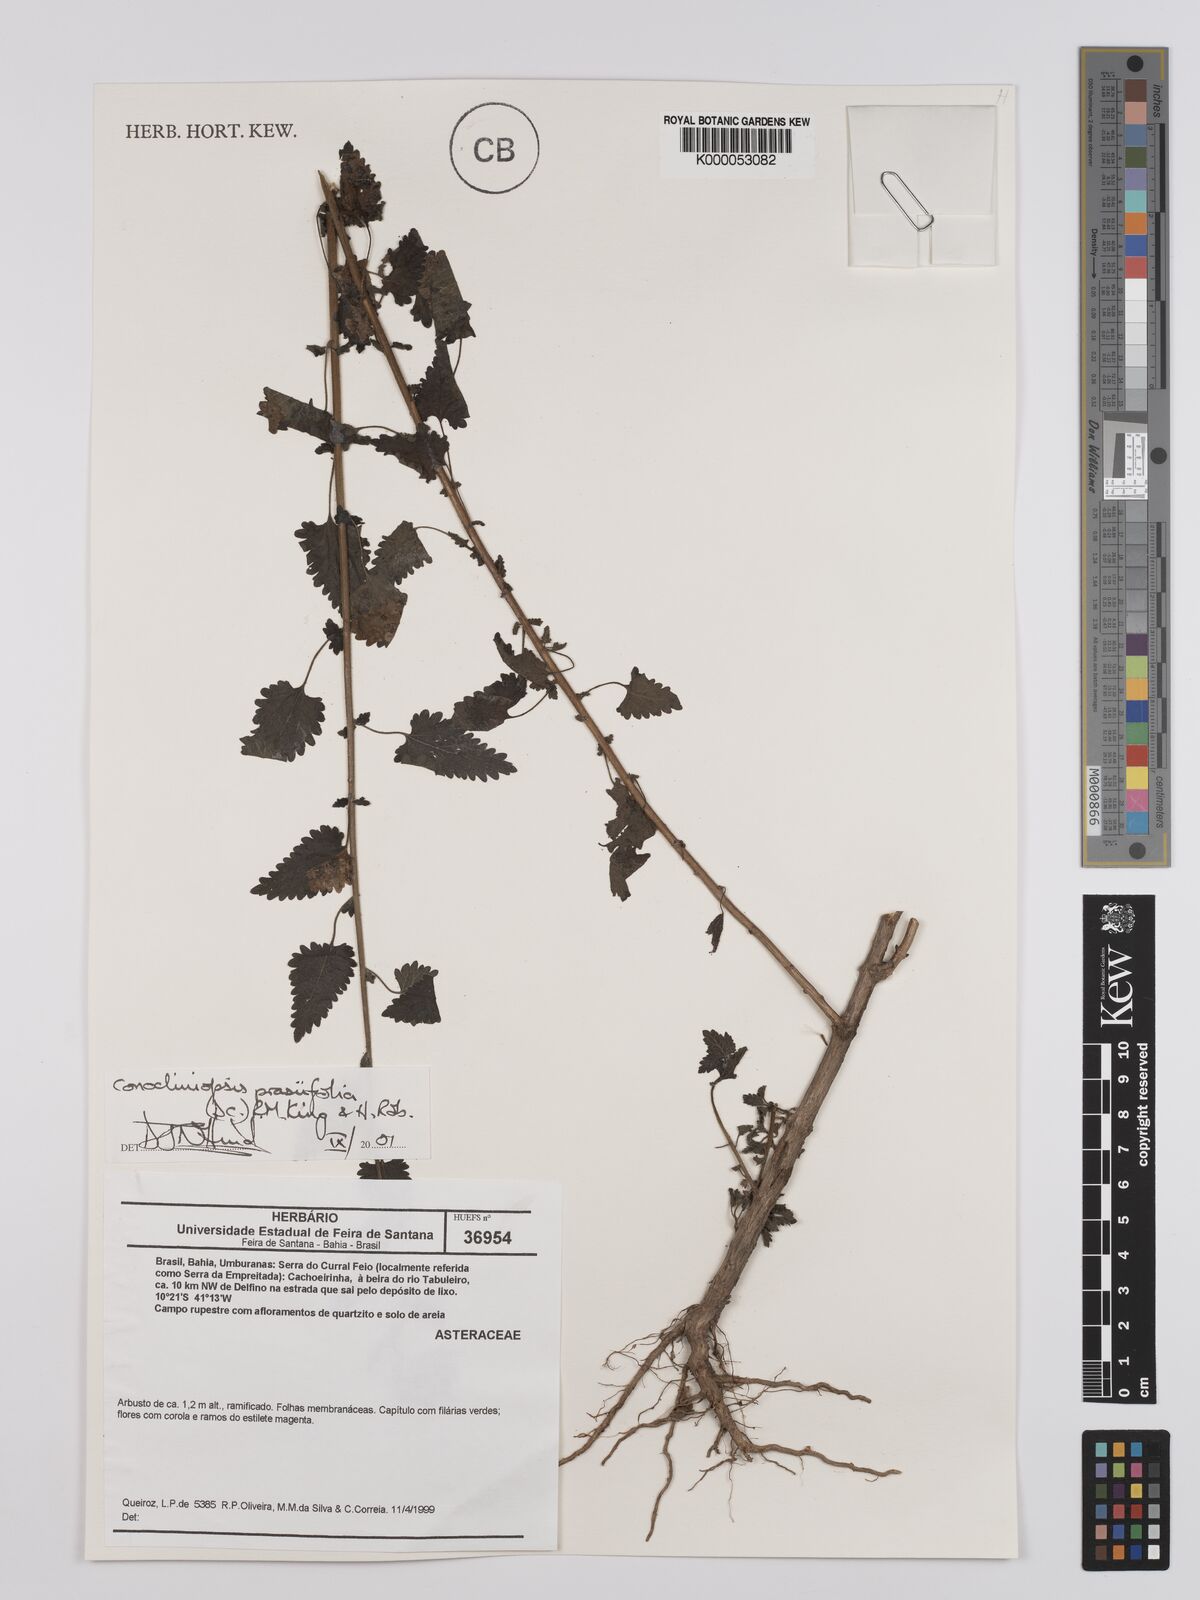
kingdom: Plantae
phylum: Tracheophyta
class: Magnoliopsida
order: Asterales
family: Asteraceae
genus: Conocliniopsis
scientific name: Conocliniopsis grossedentata
